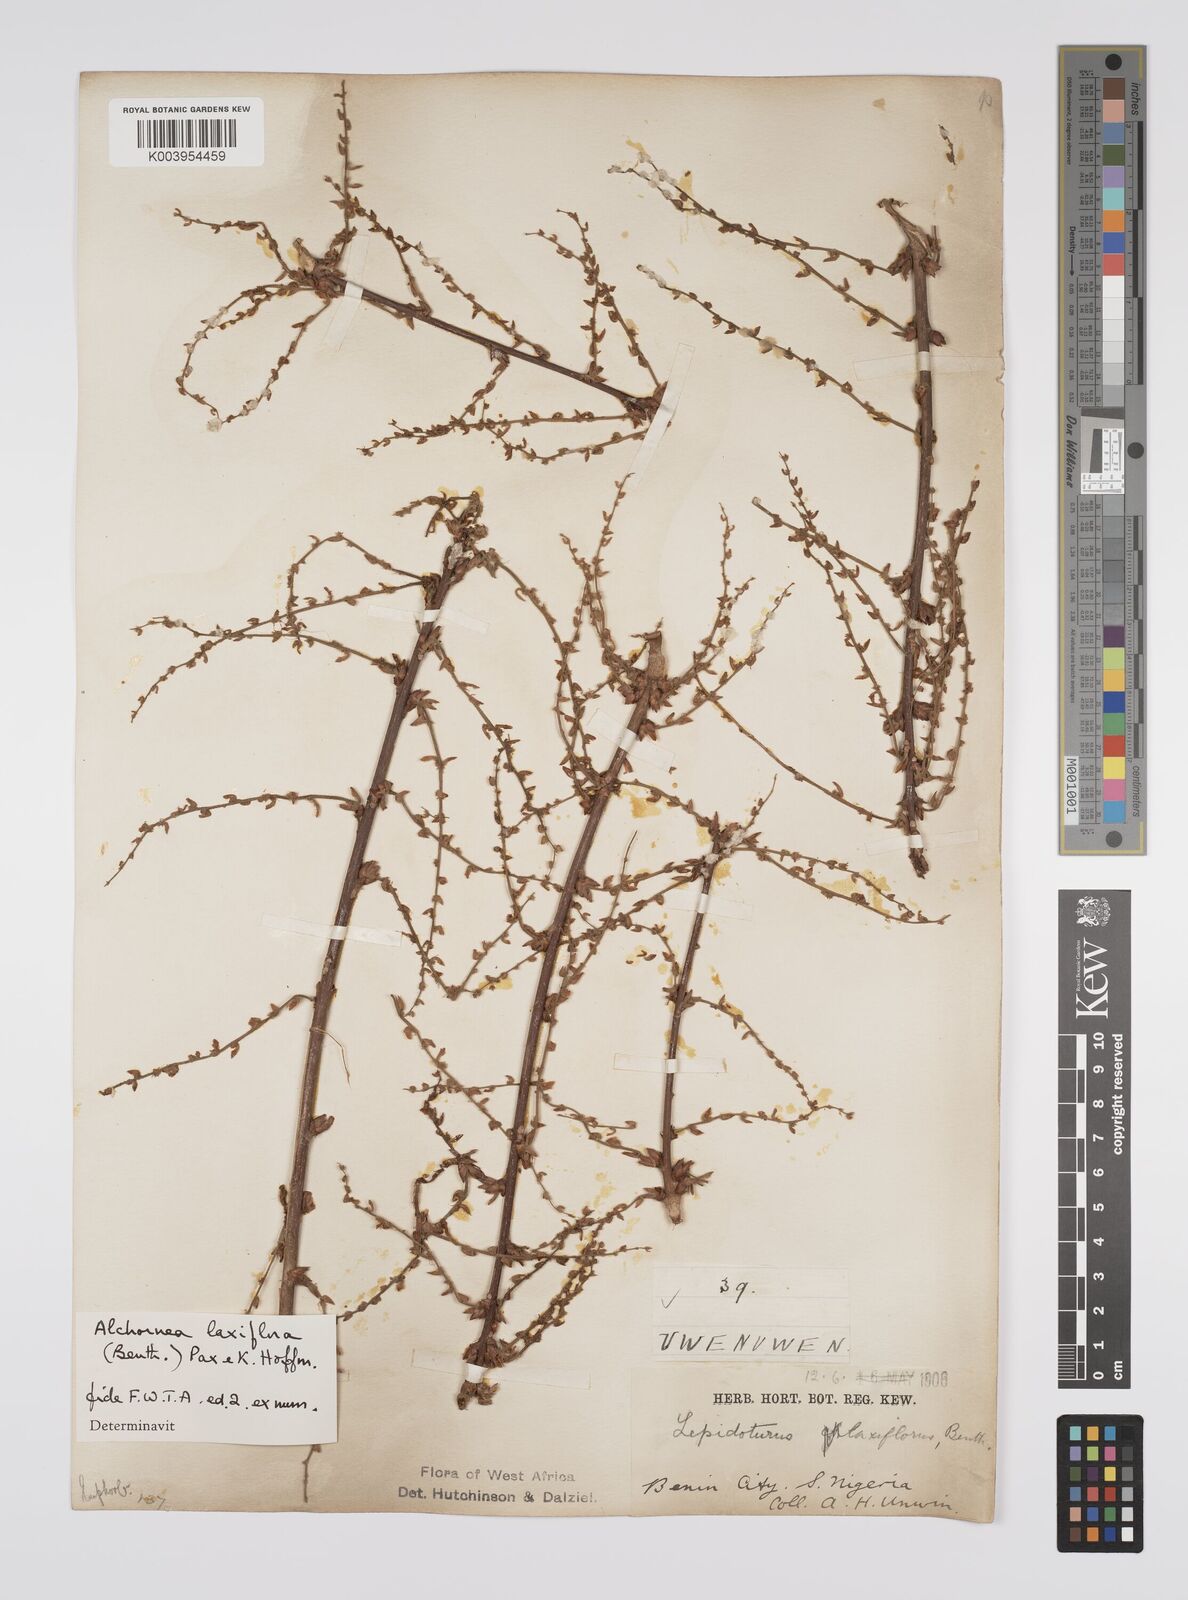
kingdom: Plantae
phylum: Tracheophyta
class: Magnoliopsida
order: Malpighiales
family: Euphorbiaceae
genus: Alchornea
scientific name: Alchornea laxiflora
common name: Lowveld bead-string
